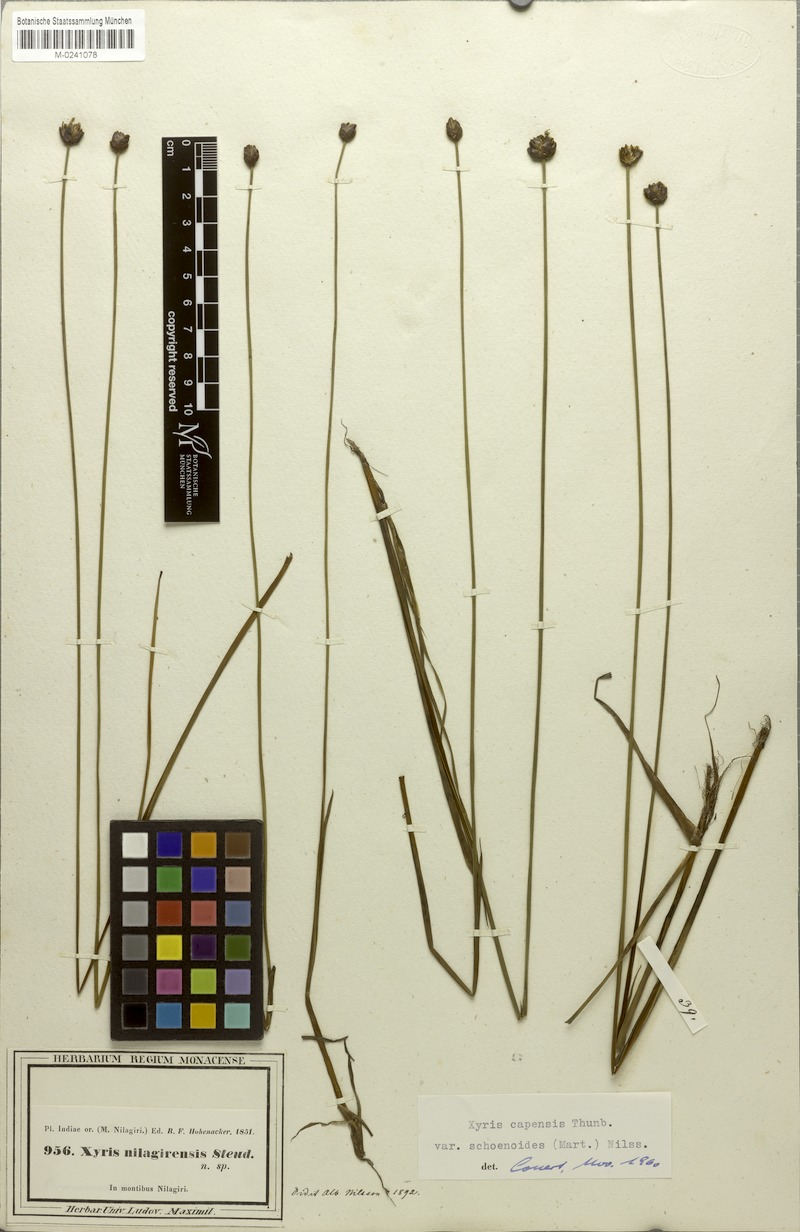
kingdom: Plantae
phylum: Tracheophyta
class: Liliopsida
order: Poales
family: Xyridaceae
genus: Xyris
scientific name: Xyris capensis
